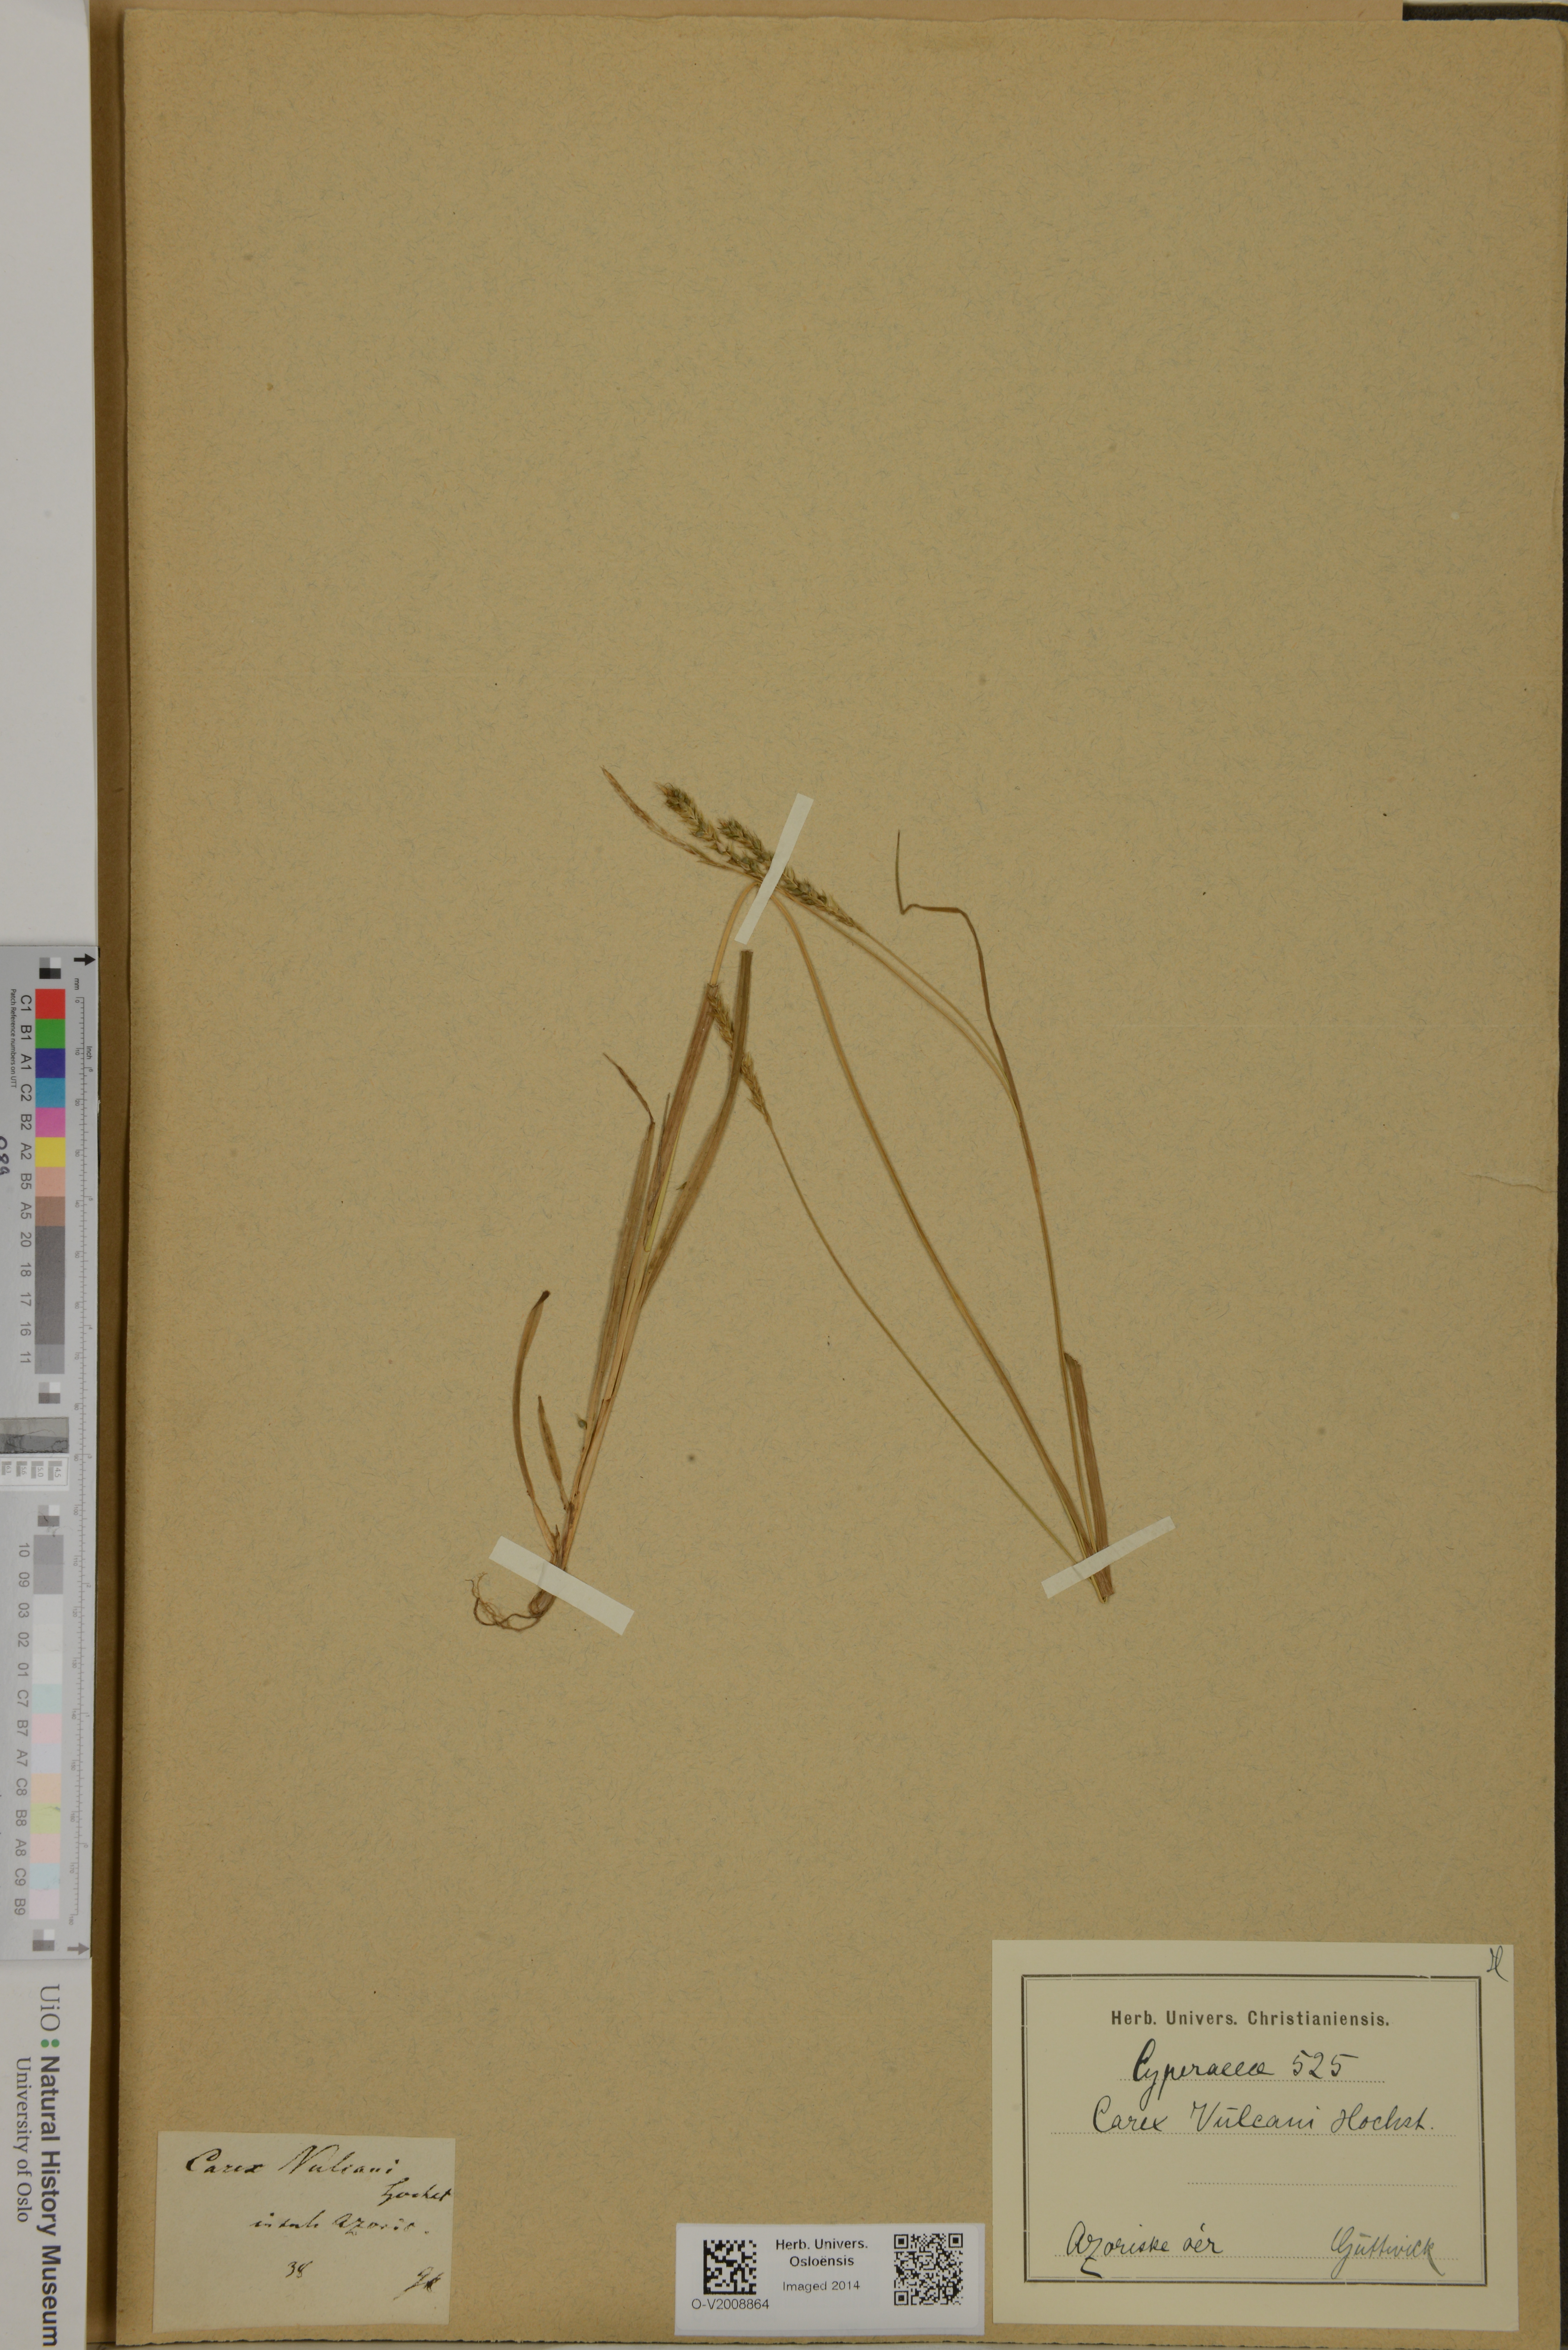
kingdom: Plantae
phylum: Tracheophyta
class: Liliopsida
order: Poales
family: Cyperaceae
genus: Carex
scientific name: Carex vulcani
